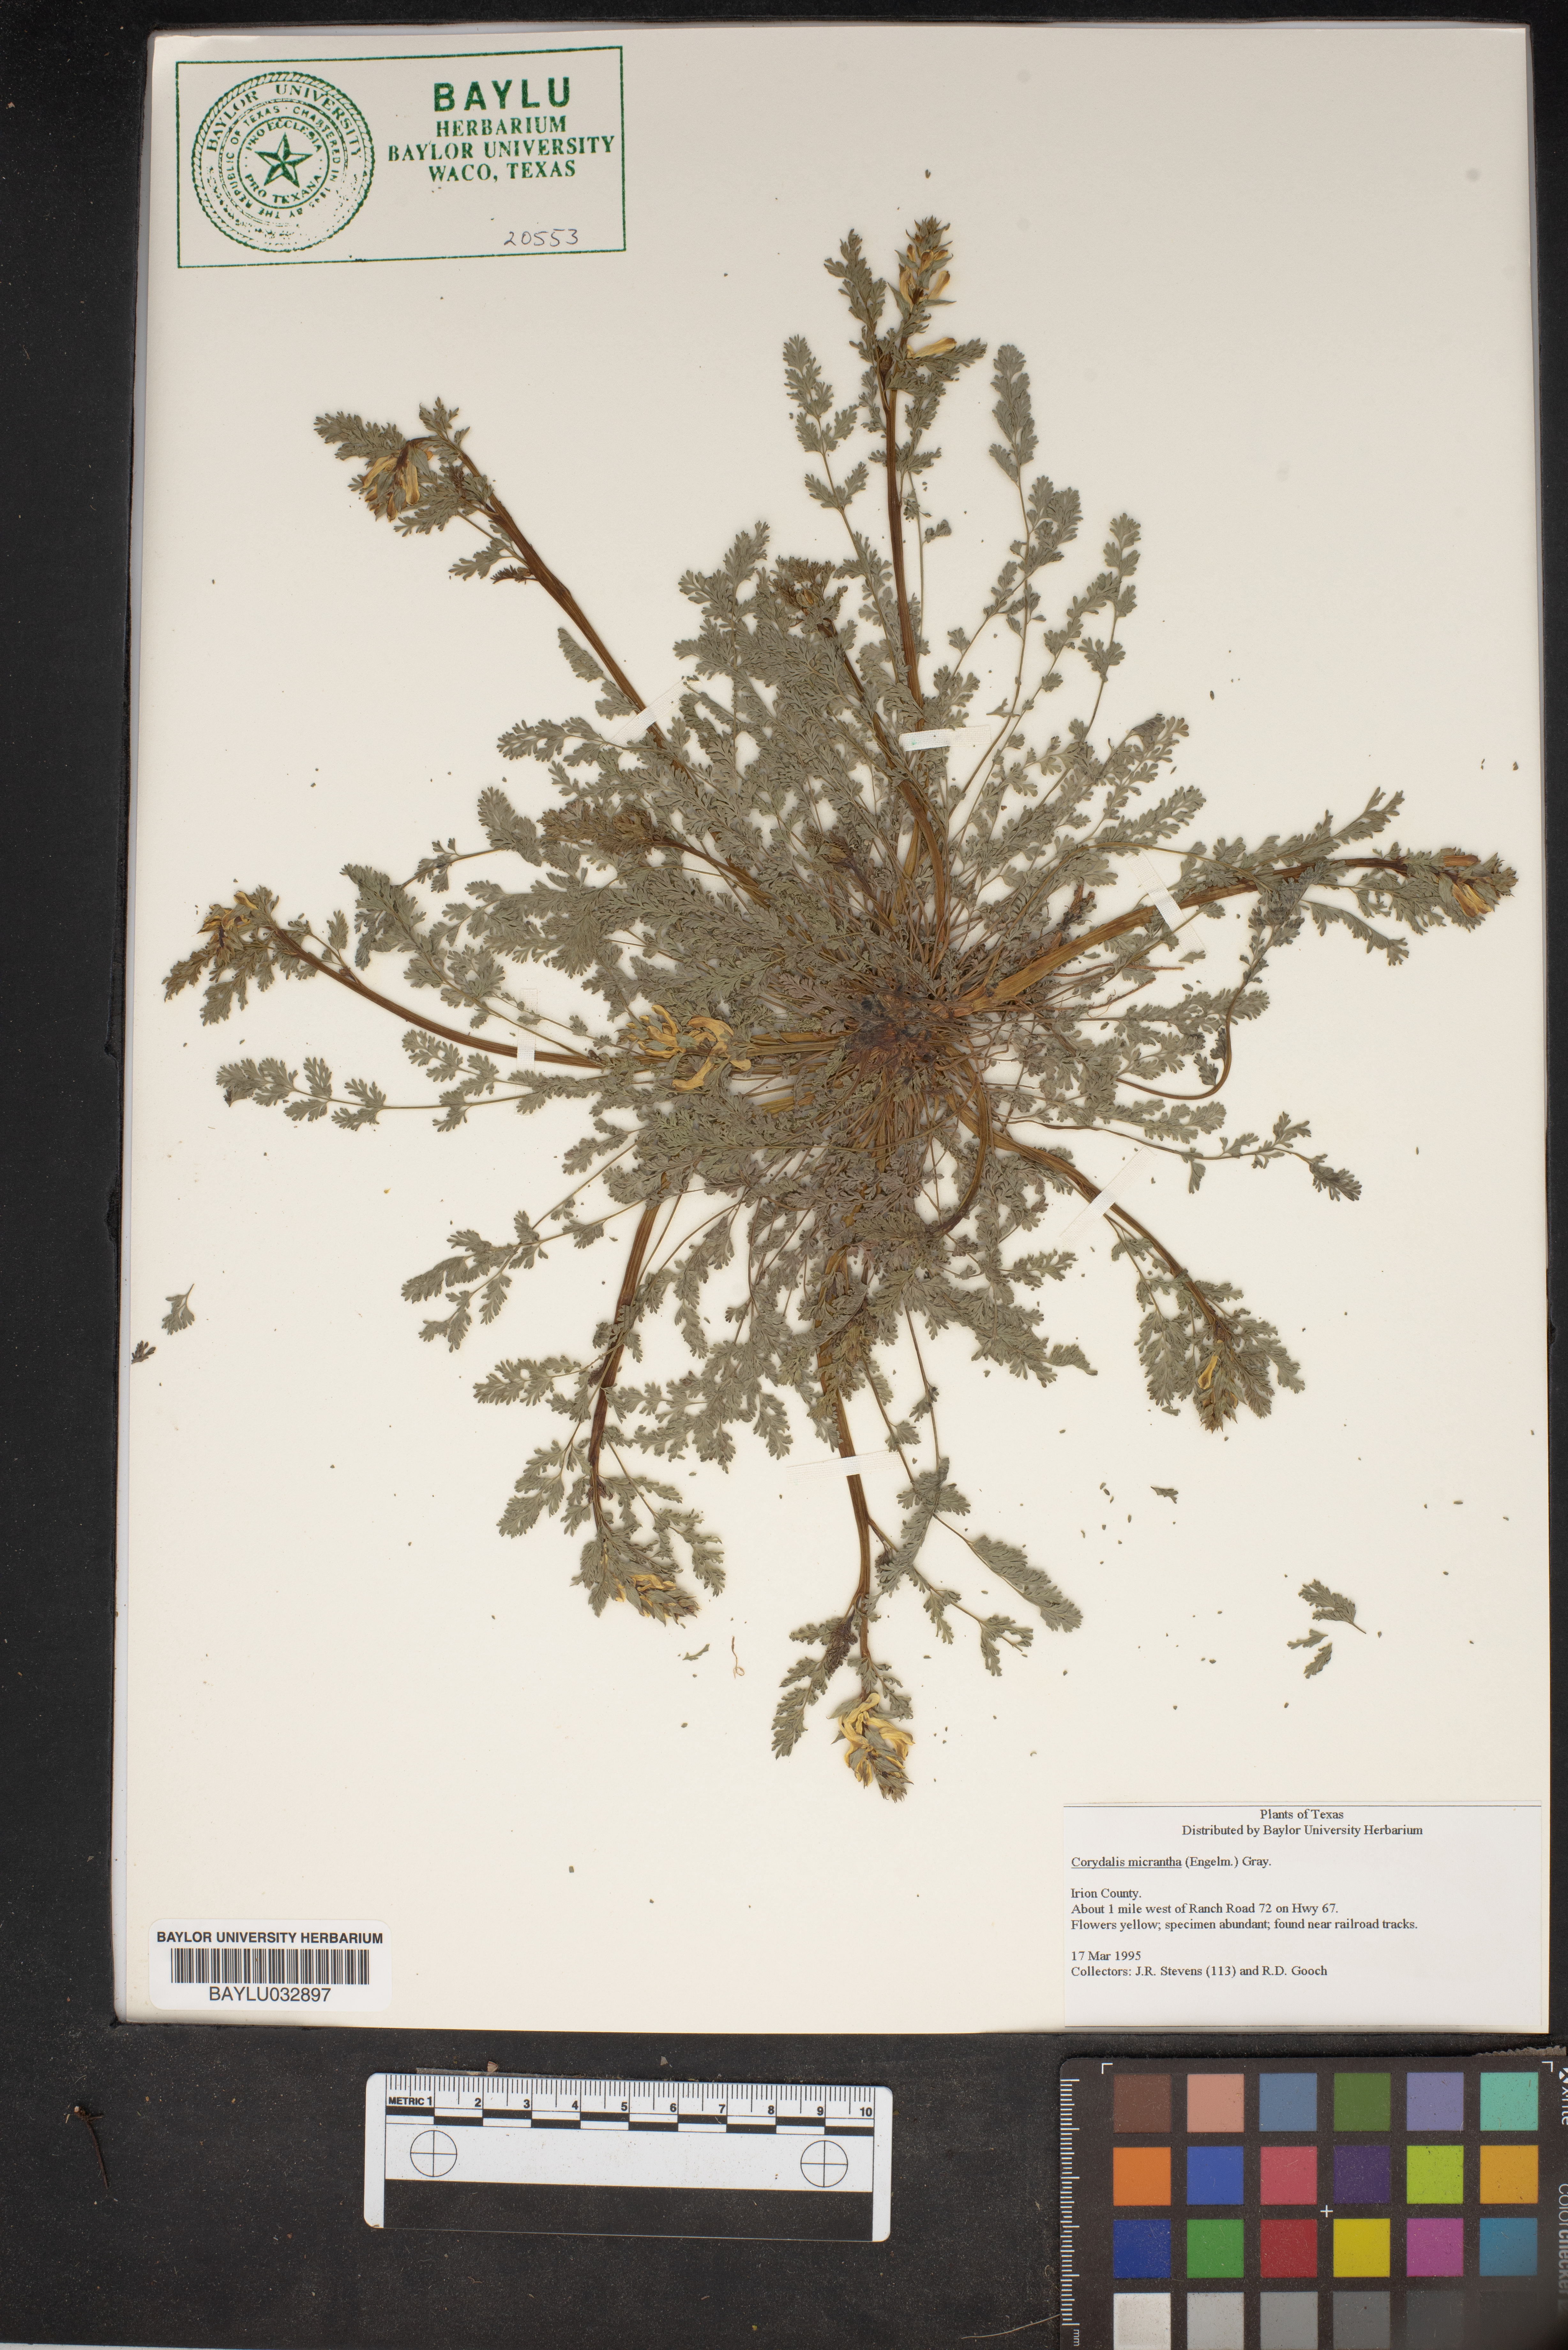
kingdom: Plantae
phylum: Tracheophyta
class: Magnoliopsida
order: Ranunculales
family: Papaveraceae
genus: Corydalis
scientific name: Corydalis micrantha
